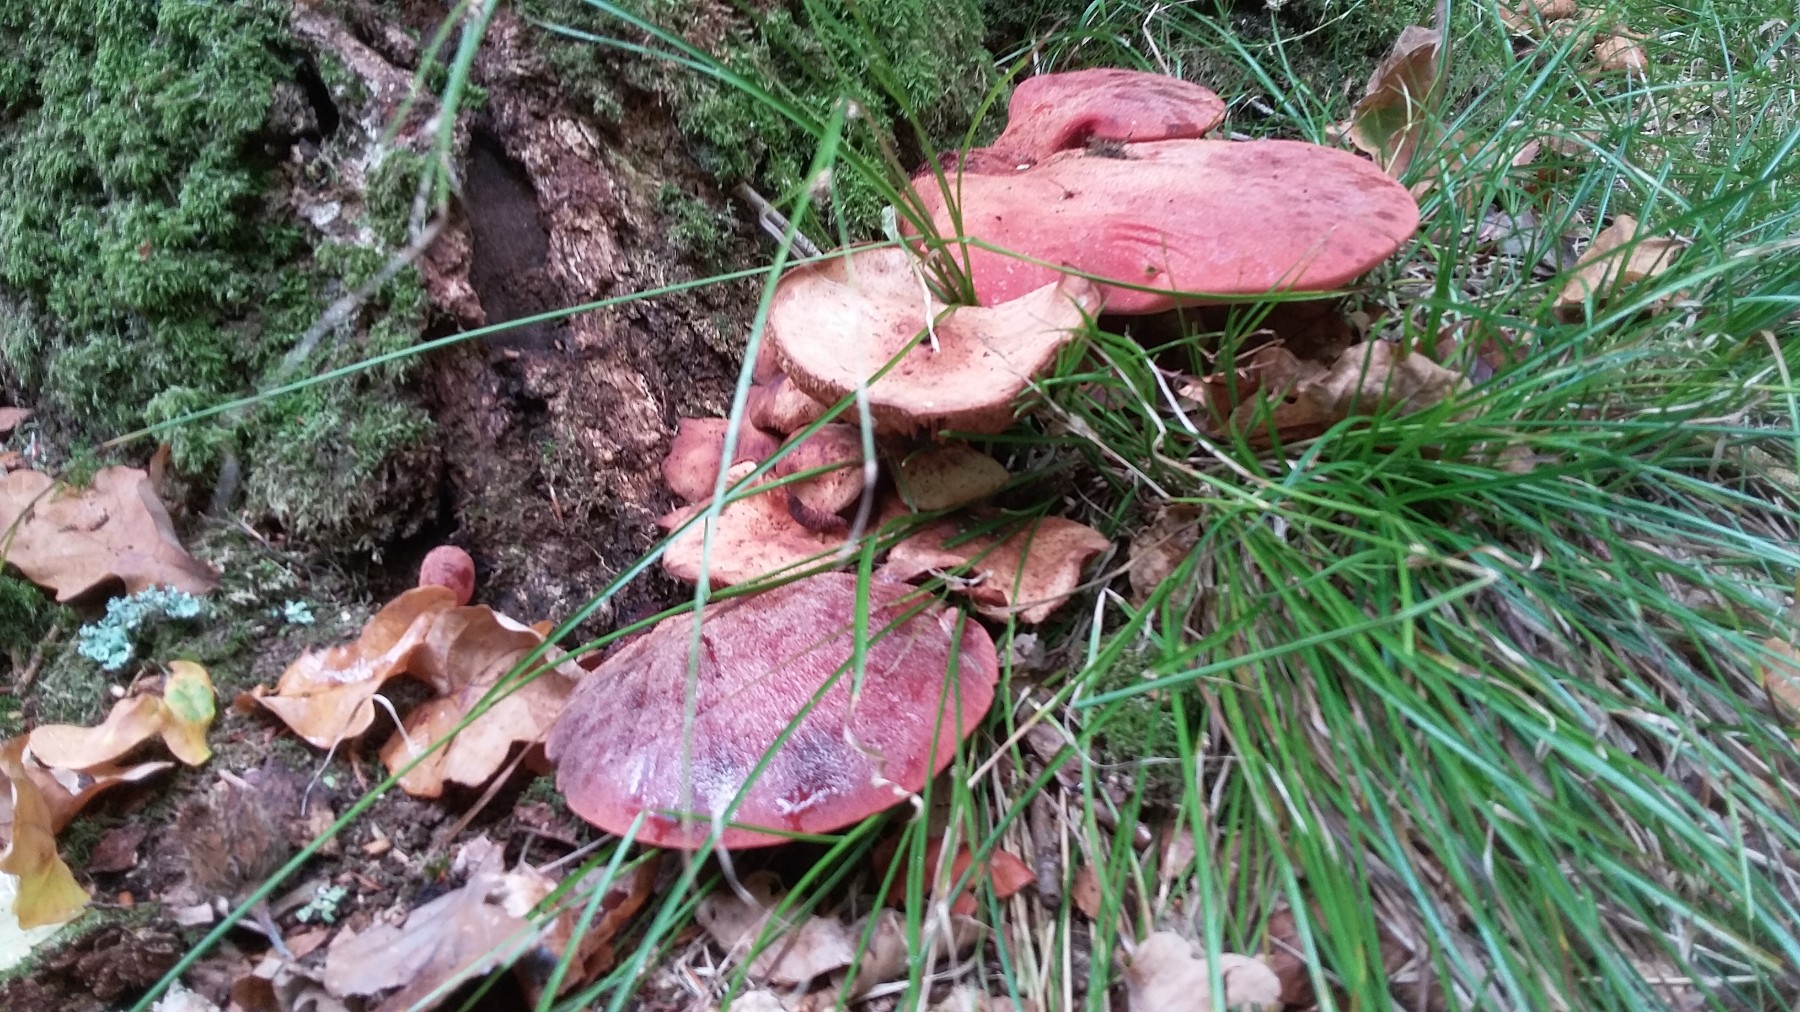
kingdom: Fungi
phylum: Basidiomycota
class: Agaricomycetes
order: Agaricales
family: Fistulinaceae
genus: Fistulina
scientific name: Fistulina hepatica
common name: oksetunge
